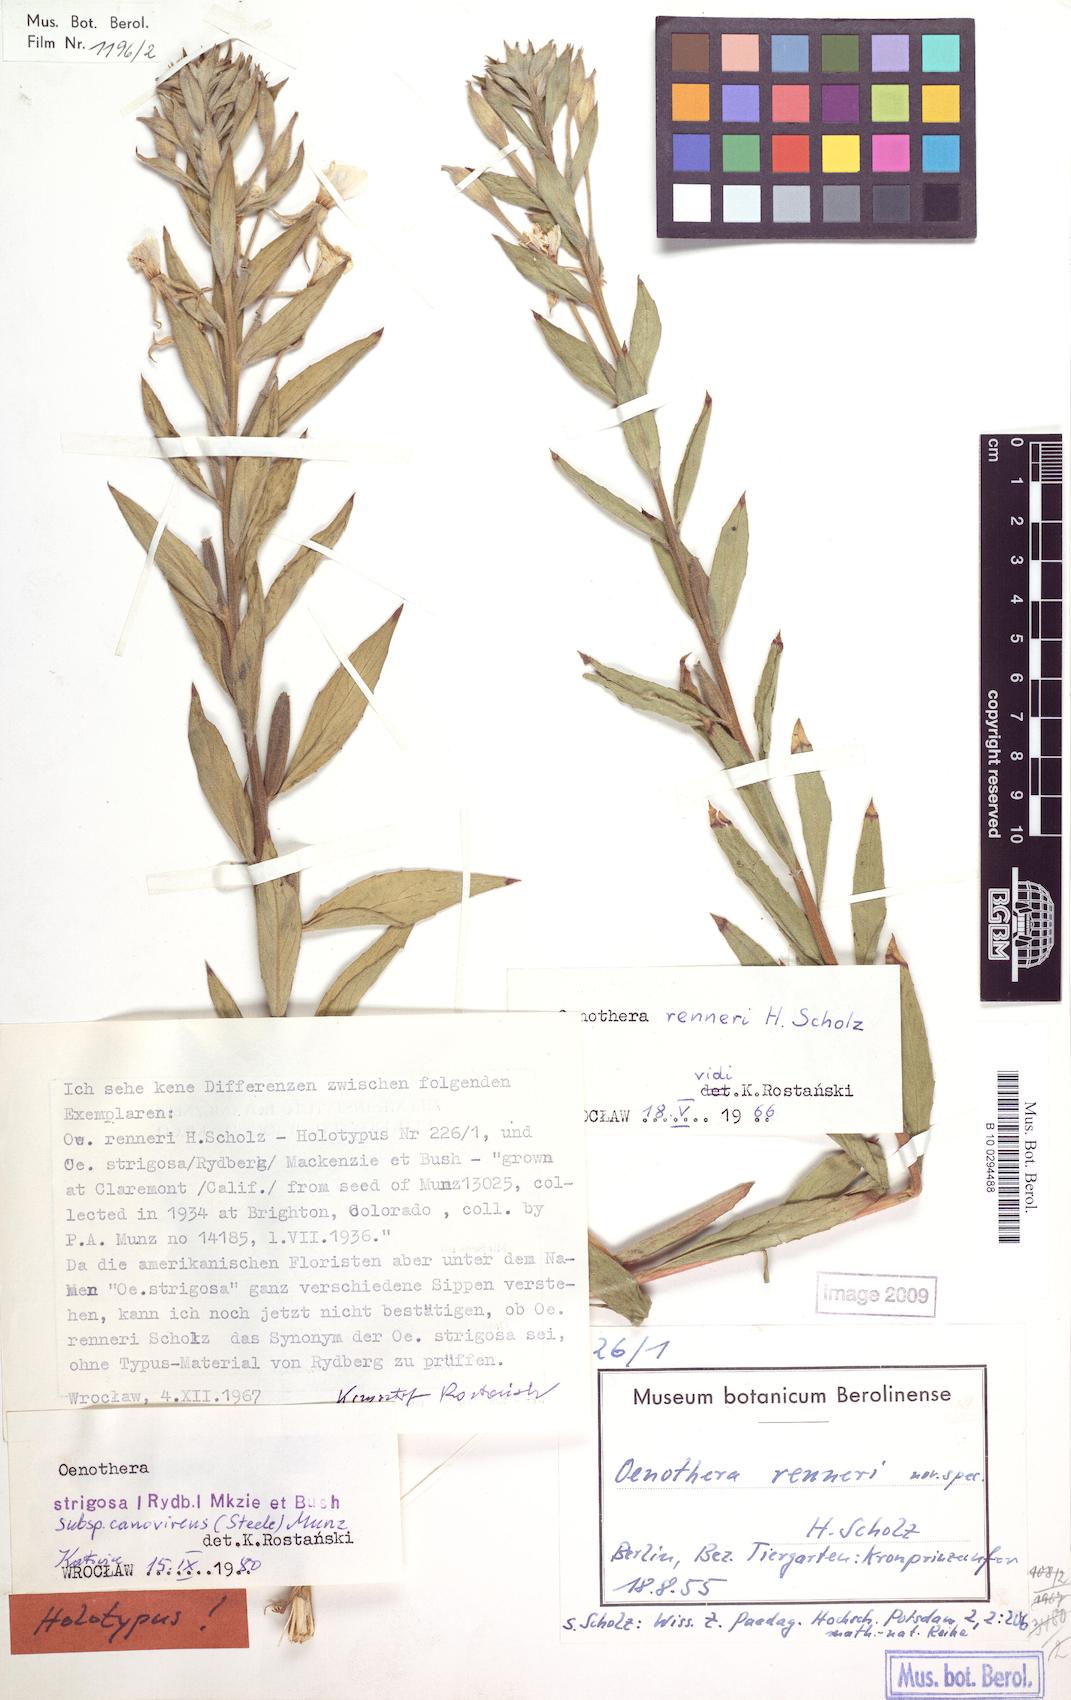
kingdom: Plantae
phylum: Tracheophyta
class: Magnoliopsida
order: Myrtales
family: Onagraceae
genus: Oenothera
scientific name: Oenothera renneri
